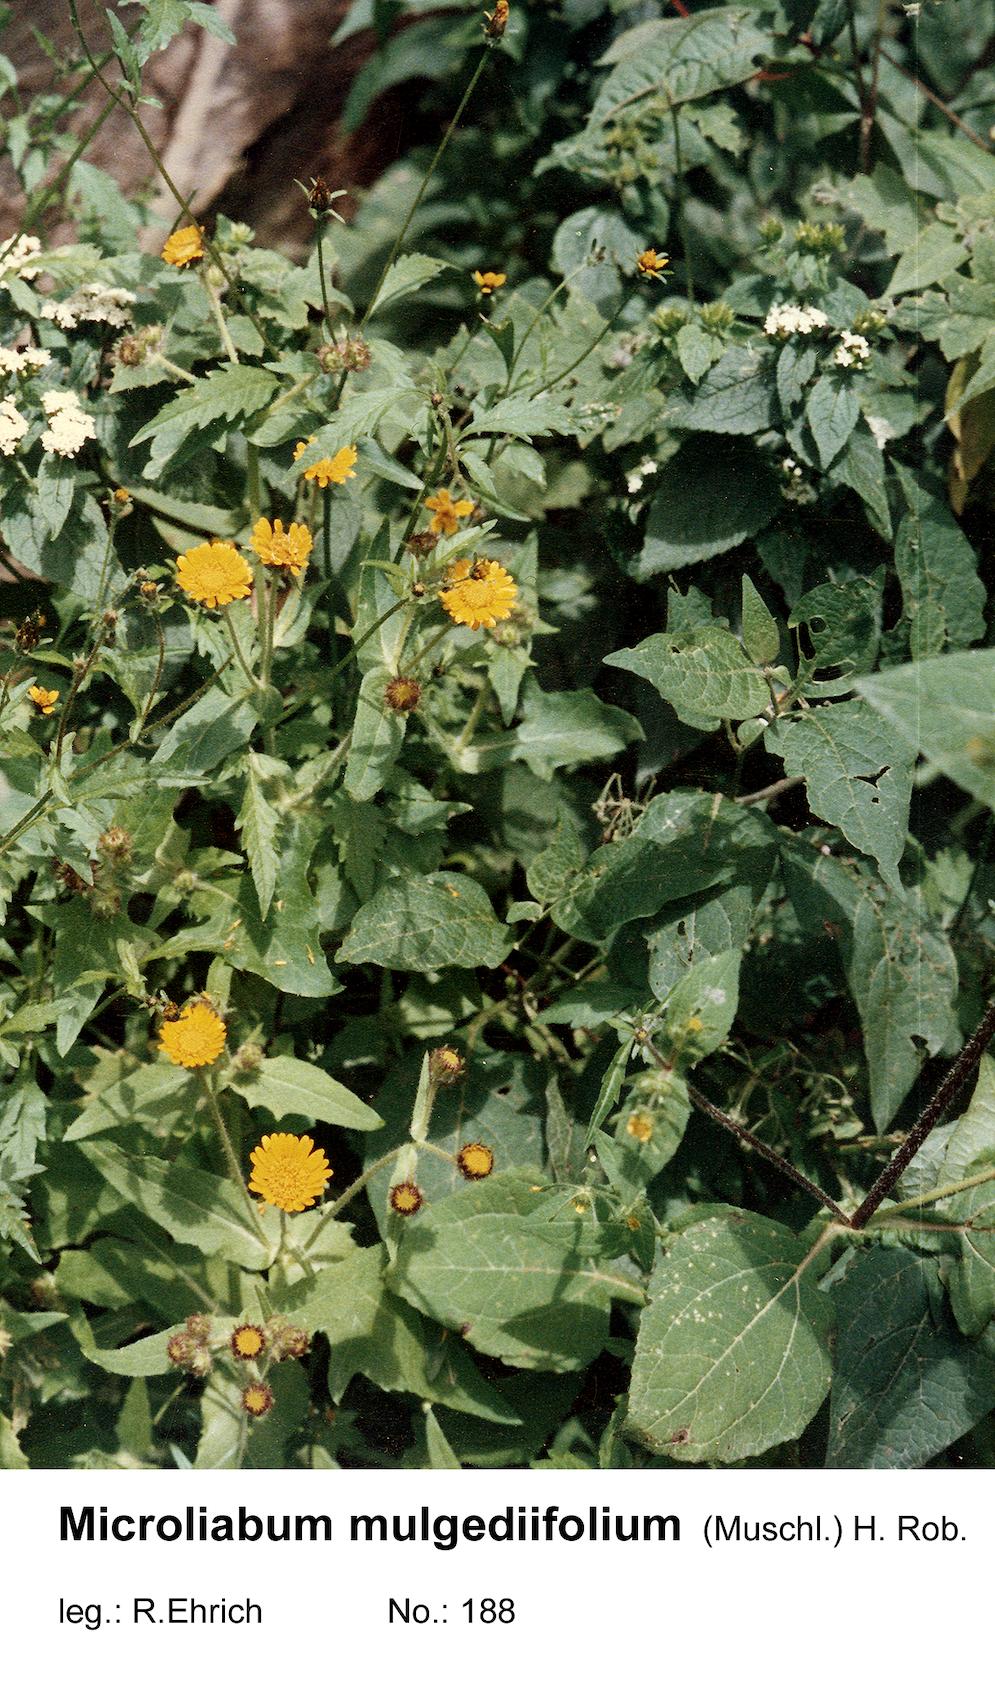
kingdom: Plantae
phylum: Tracheophyta
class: Magnoliopsida
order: Asterales
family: Asteraceae
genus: Microliabum
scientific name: Microliabum mulgediifolium
